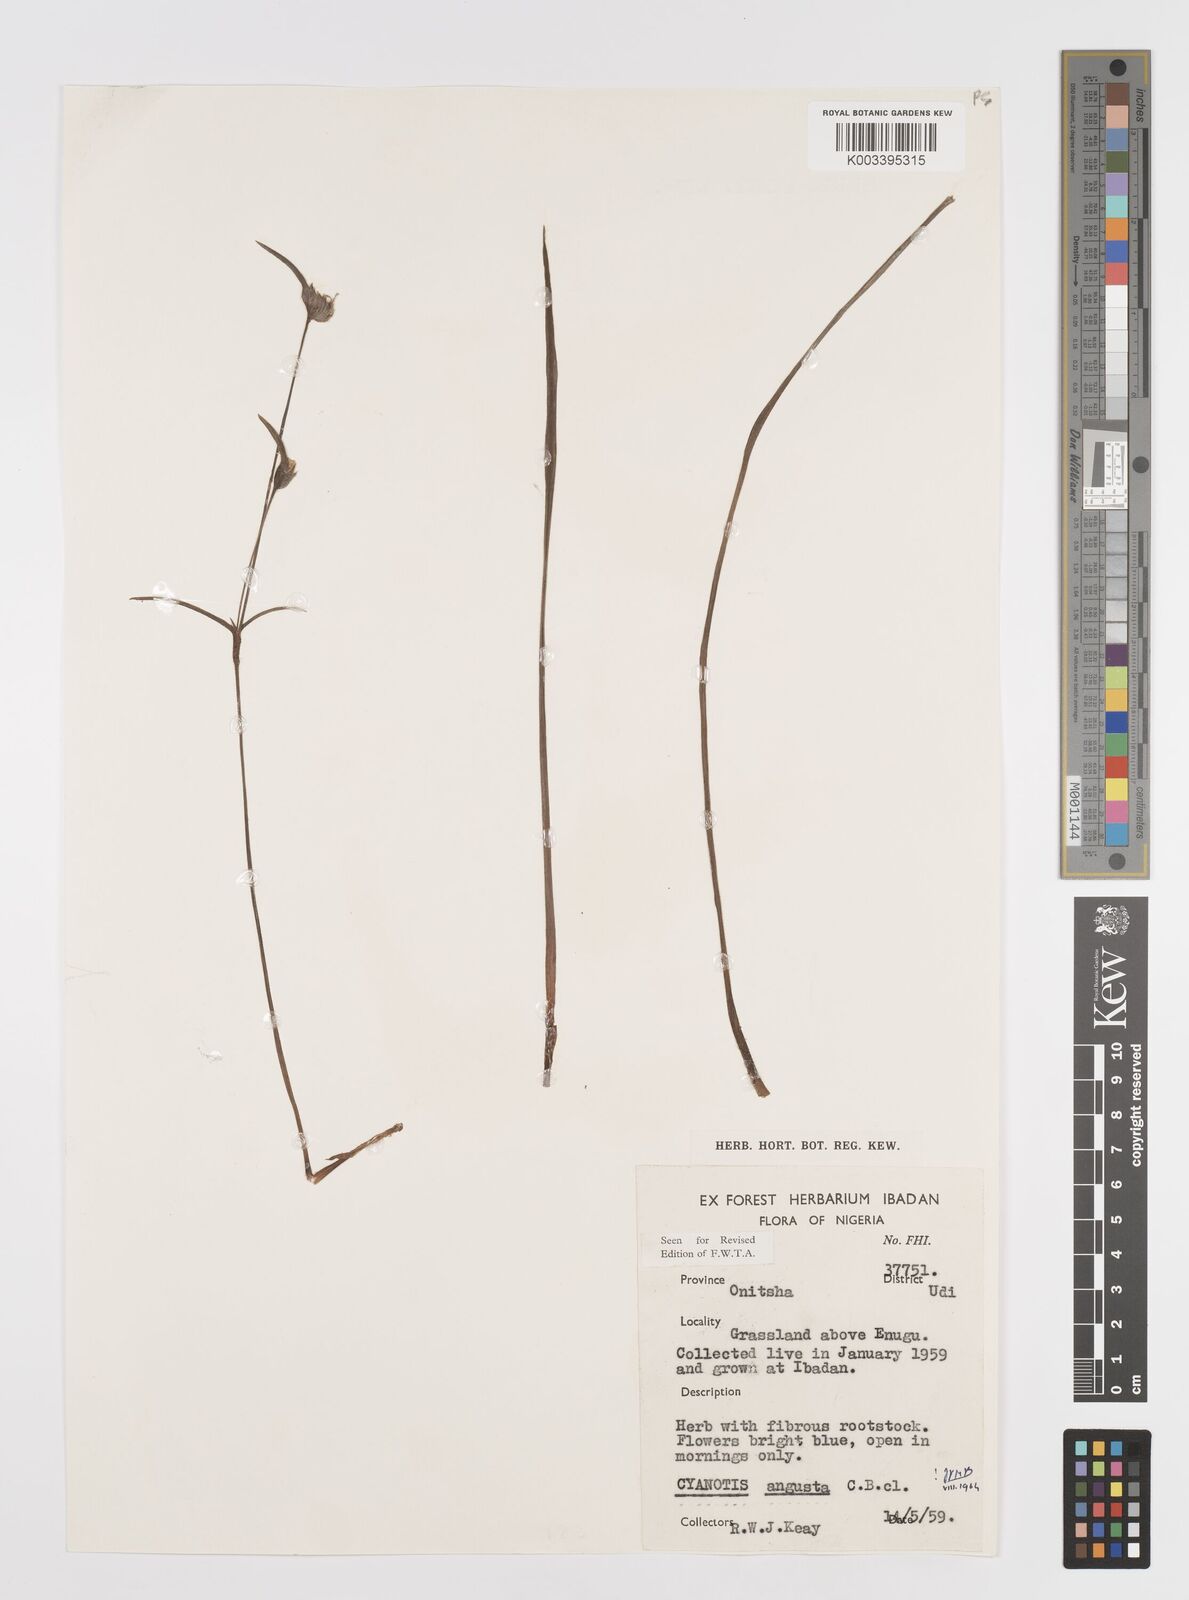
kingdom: Plantae
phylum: Tracheophyta
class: Liliopsida
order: Commelinales
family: Commelinaceae
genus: Cyanotis
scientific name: Cyanotis angusta
